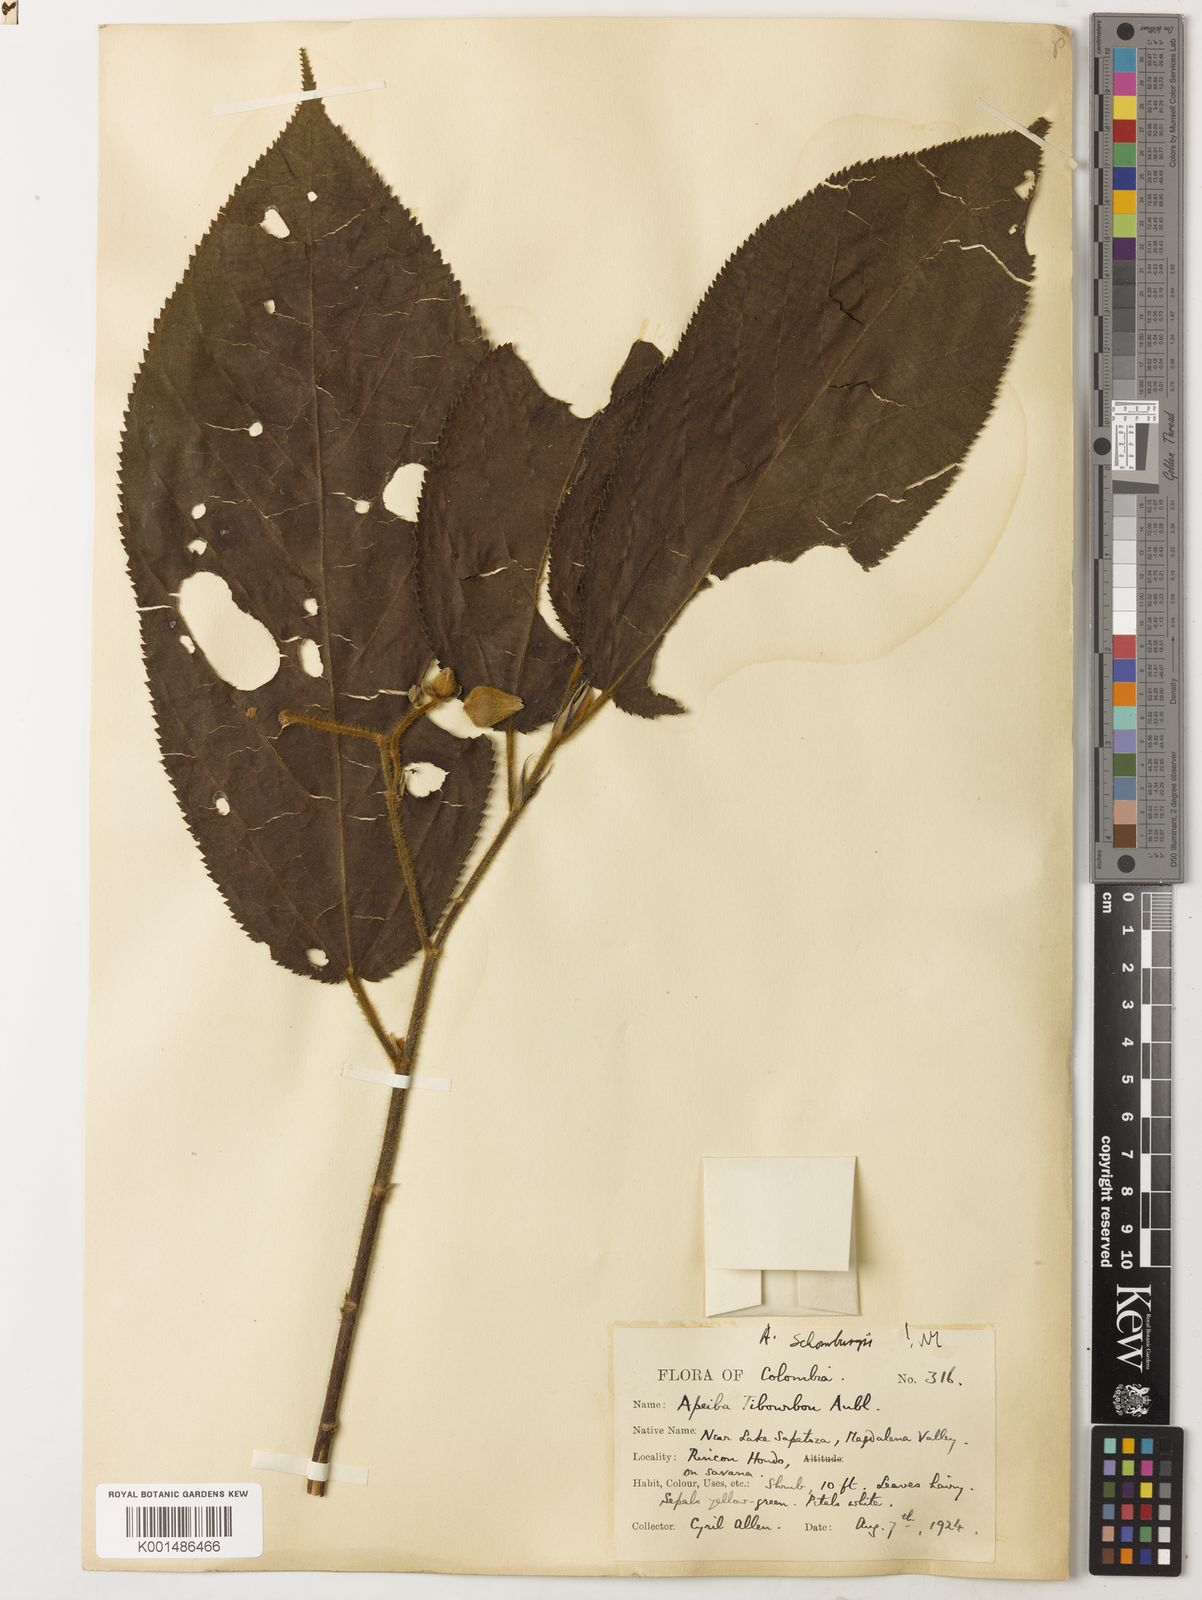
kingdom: Plantae
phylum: Tracheophyta
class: Magnoliopsida
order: Malvales
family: Malvaceae
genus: Apeiba
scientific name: Apeiba schomburgkii
